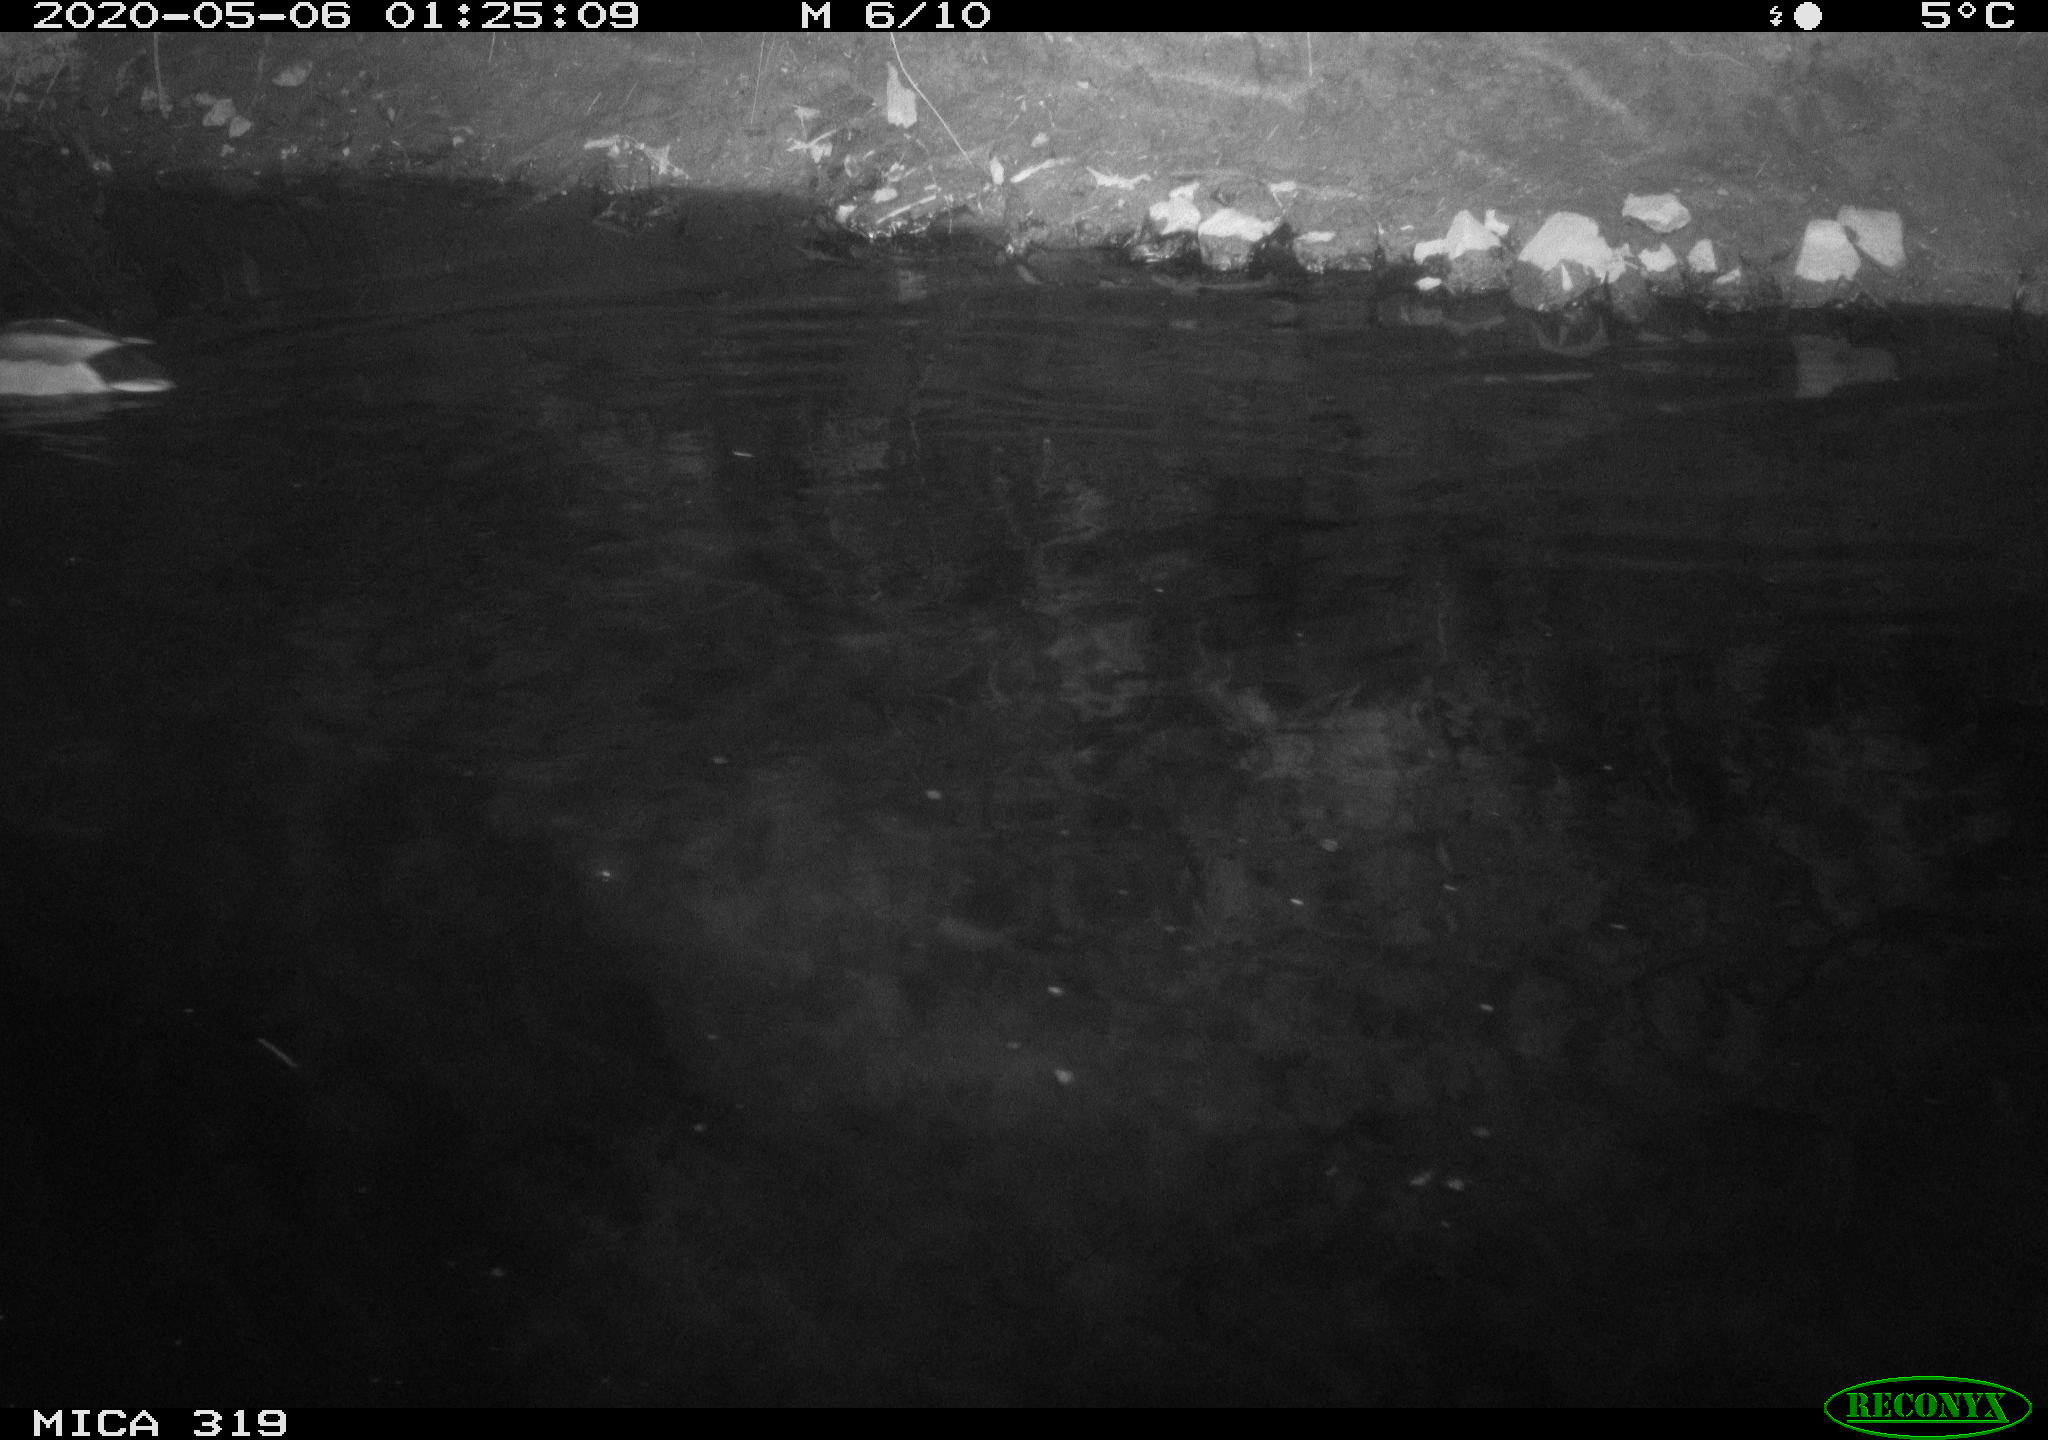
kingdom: Animalia
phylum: Chordata
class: Aves
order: Anseriformes
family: Anatidae
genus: Anas
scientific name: Anas platyrhynchos
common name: Mallard
